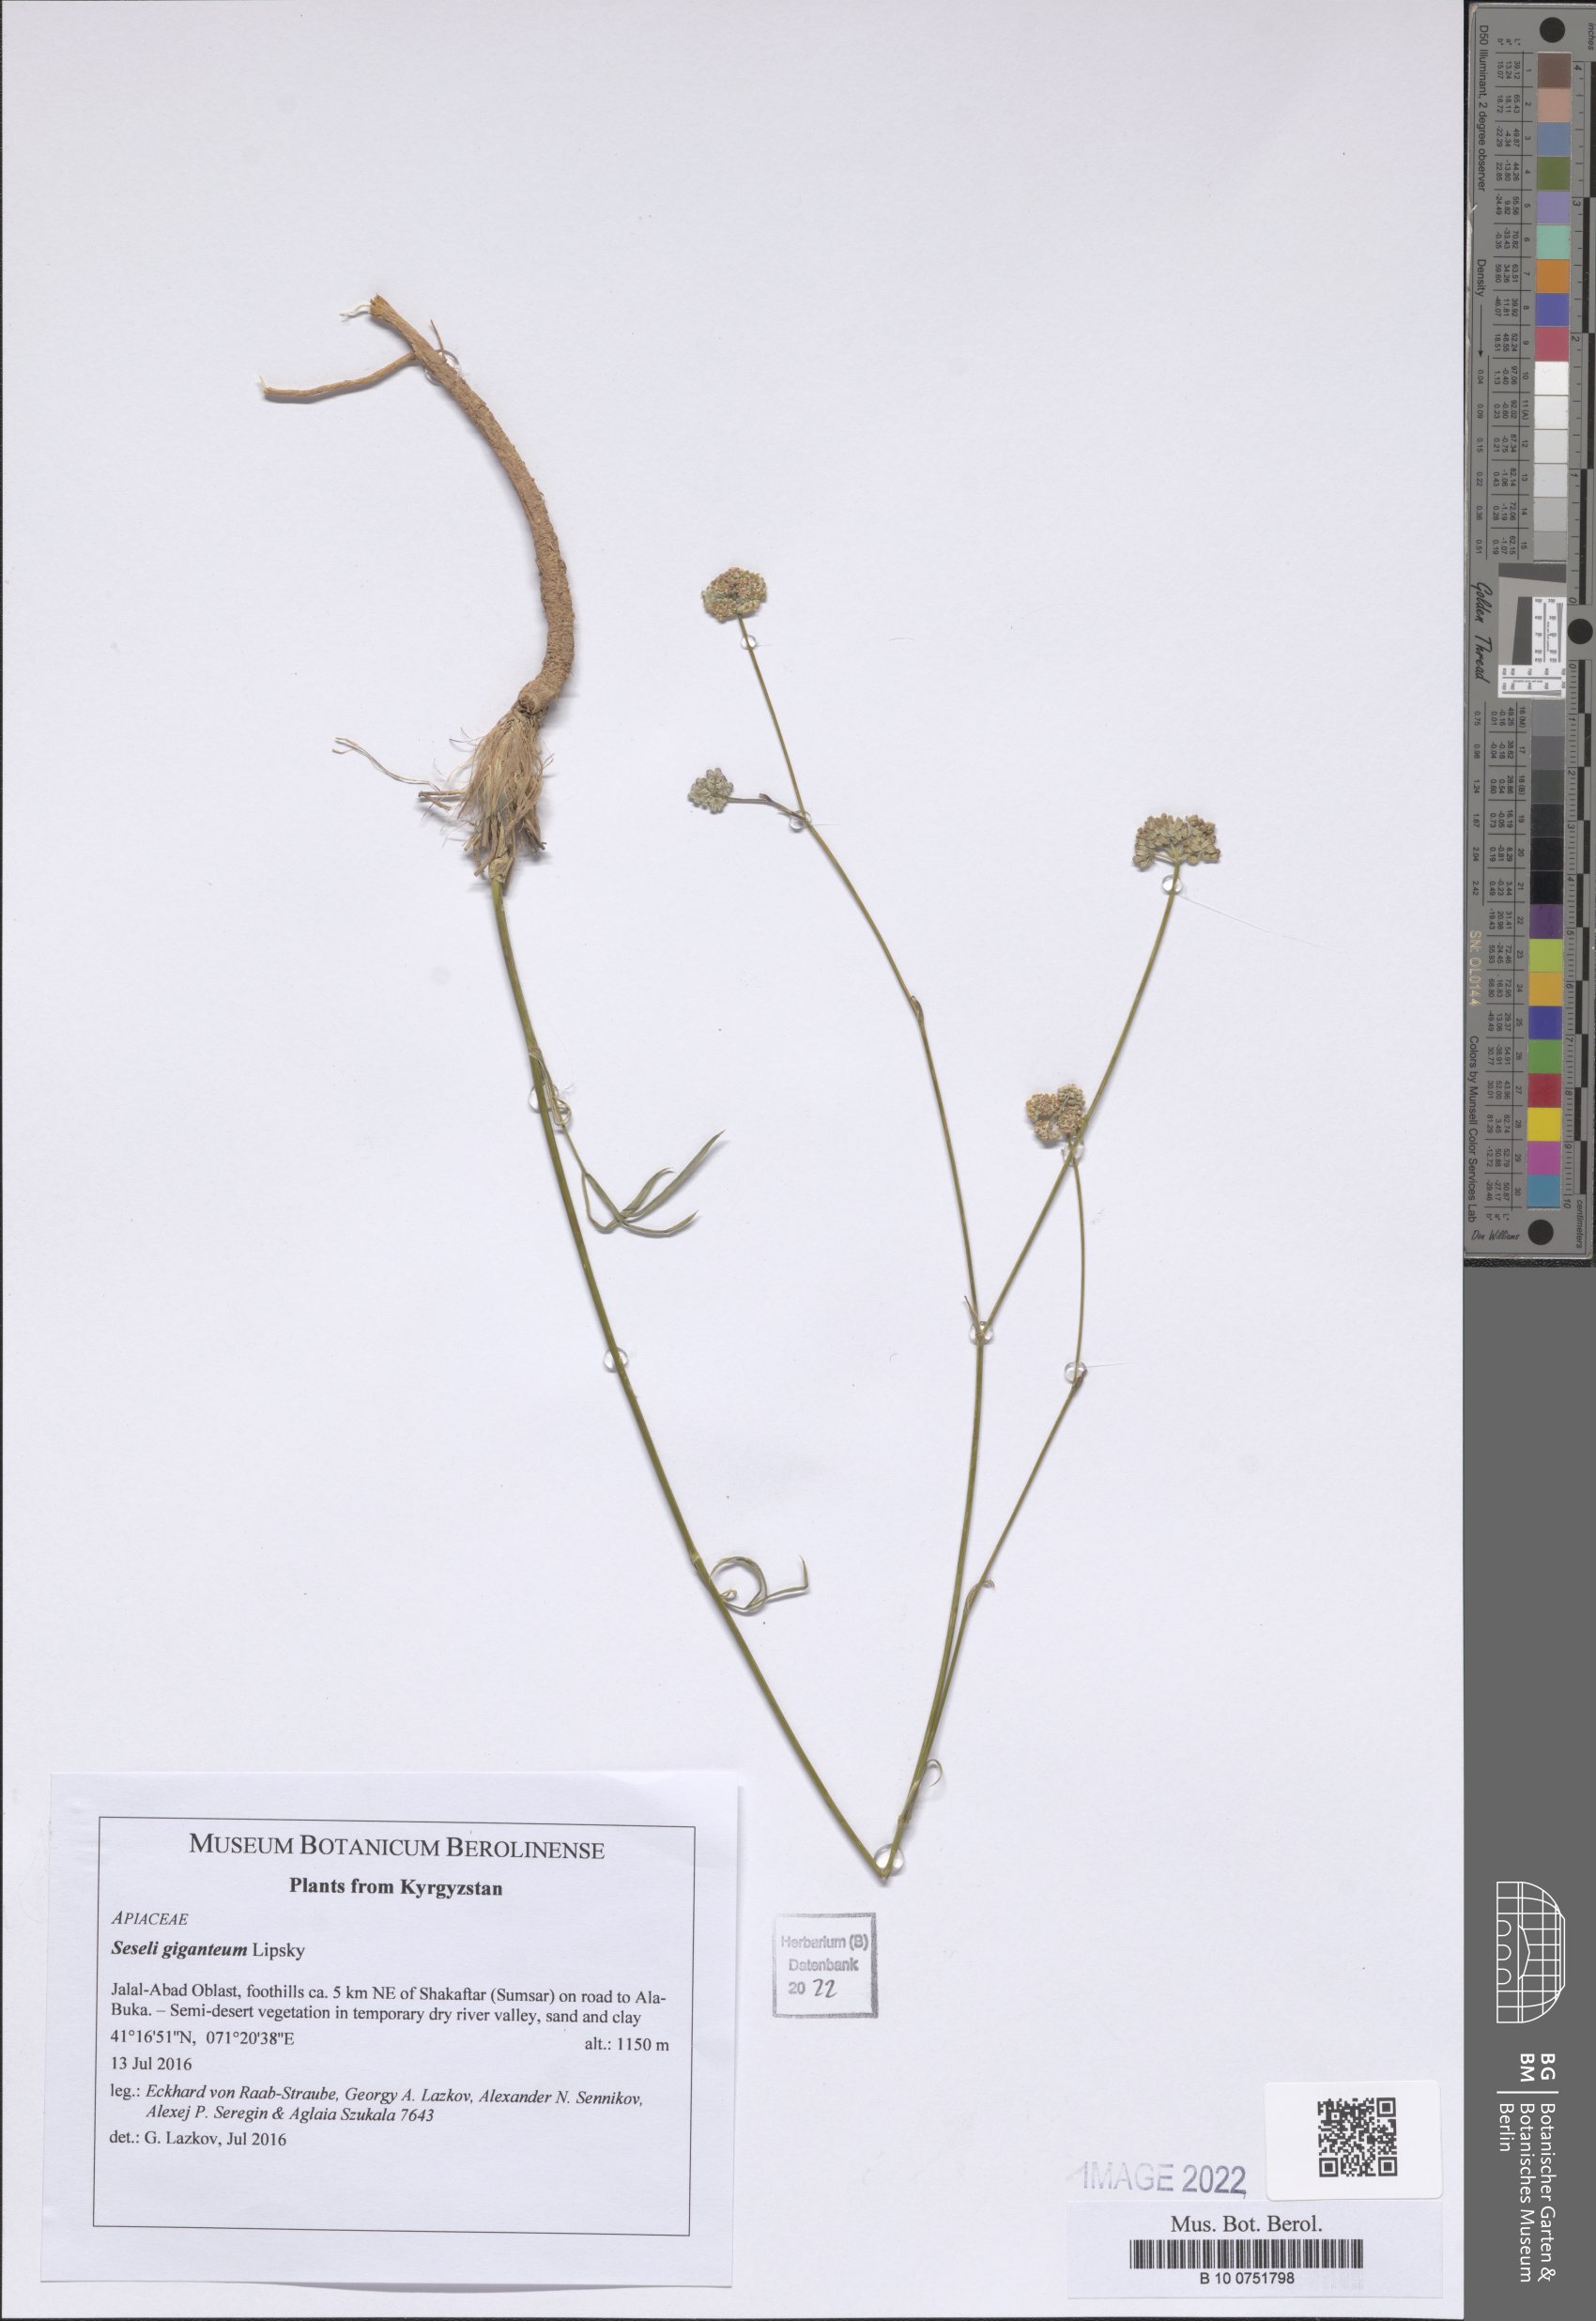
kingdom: Plantae
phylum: Tracheophyta
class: Magnoliopsida
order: Apiales
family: Apiaceae
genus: Seseli
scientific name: Seseli giganteum
